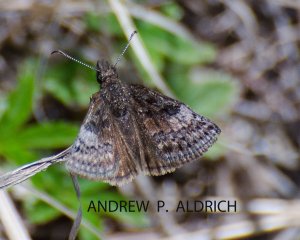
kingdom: Animalia
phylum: Arthropoda
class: Insecta
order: Lepidoptera
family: Hesperiidae
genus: Erynnis
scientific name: Erynnis brizo
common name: Sleepy Duskywing
